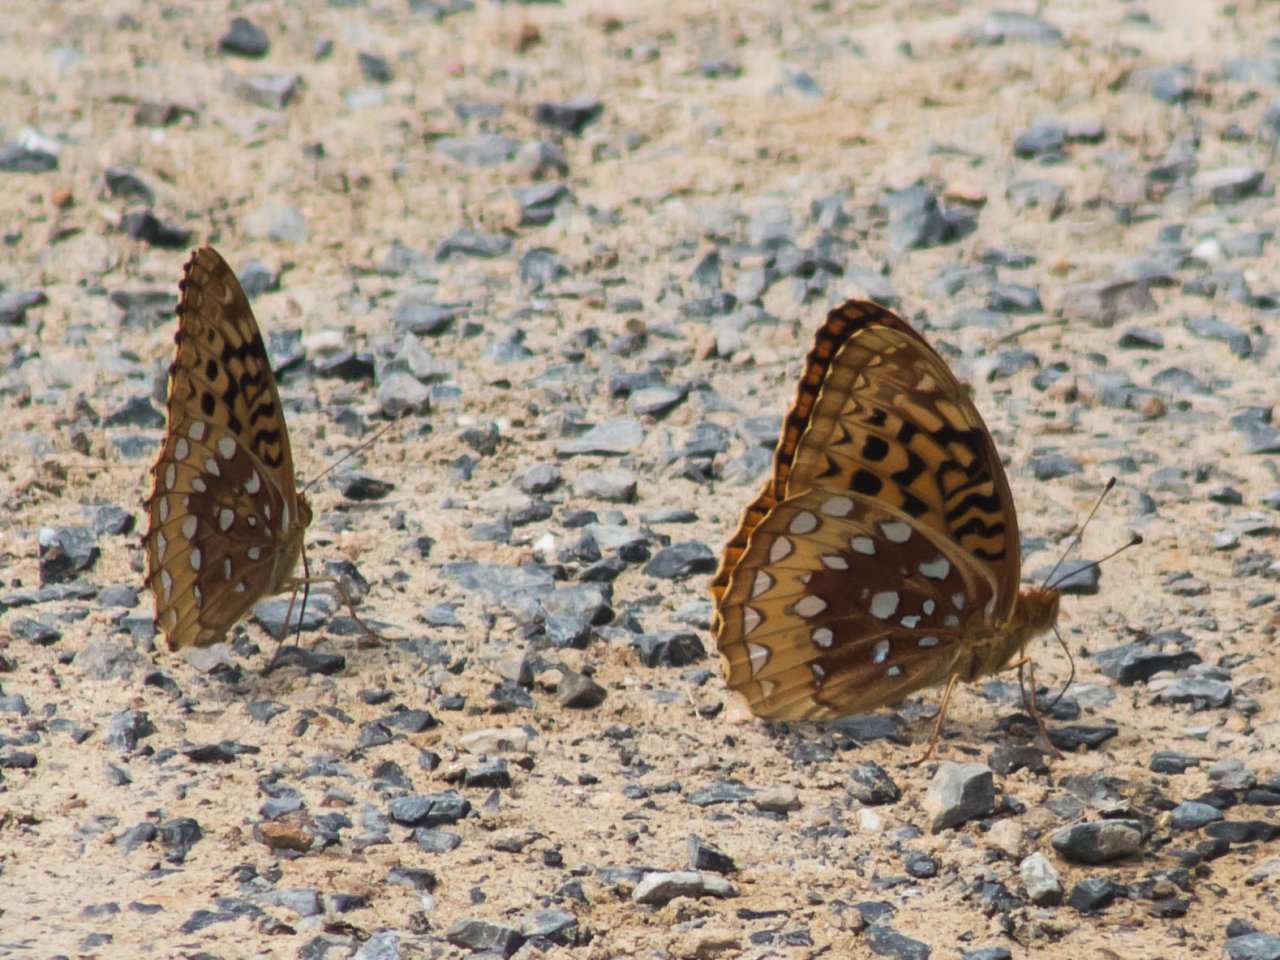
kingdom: Animalia
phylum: Arthropoda
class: Insecta
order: Lepidoptera
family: Nymphalidae
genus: Speyeria
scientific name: Speyeria cybele
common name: Great Spangled Fritillary
